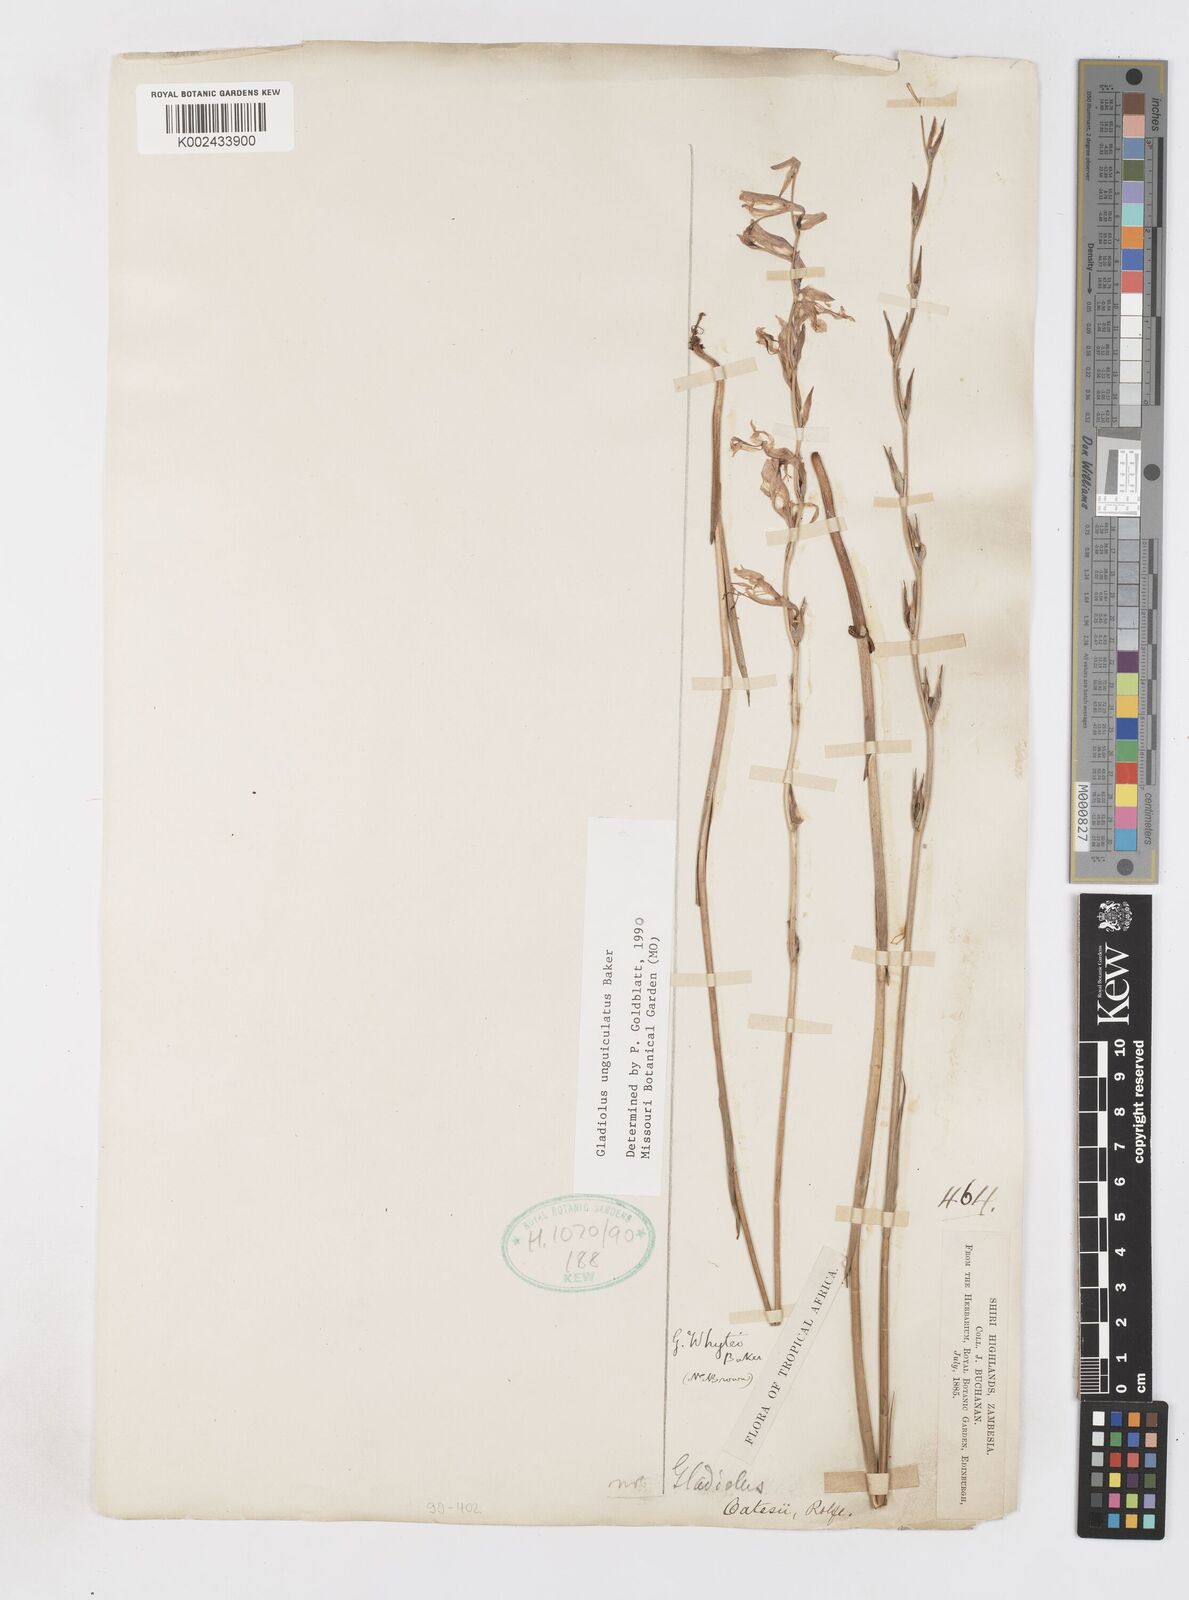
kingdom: Plantae
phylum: Tracheophyta
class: Liliopsida
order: Asparagales
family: Iridaceae
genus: Gladiolus
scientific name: Gladiolus unguiculatus
